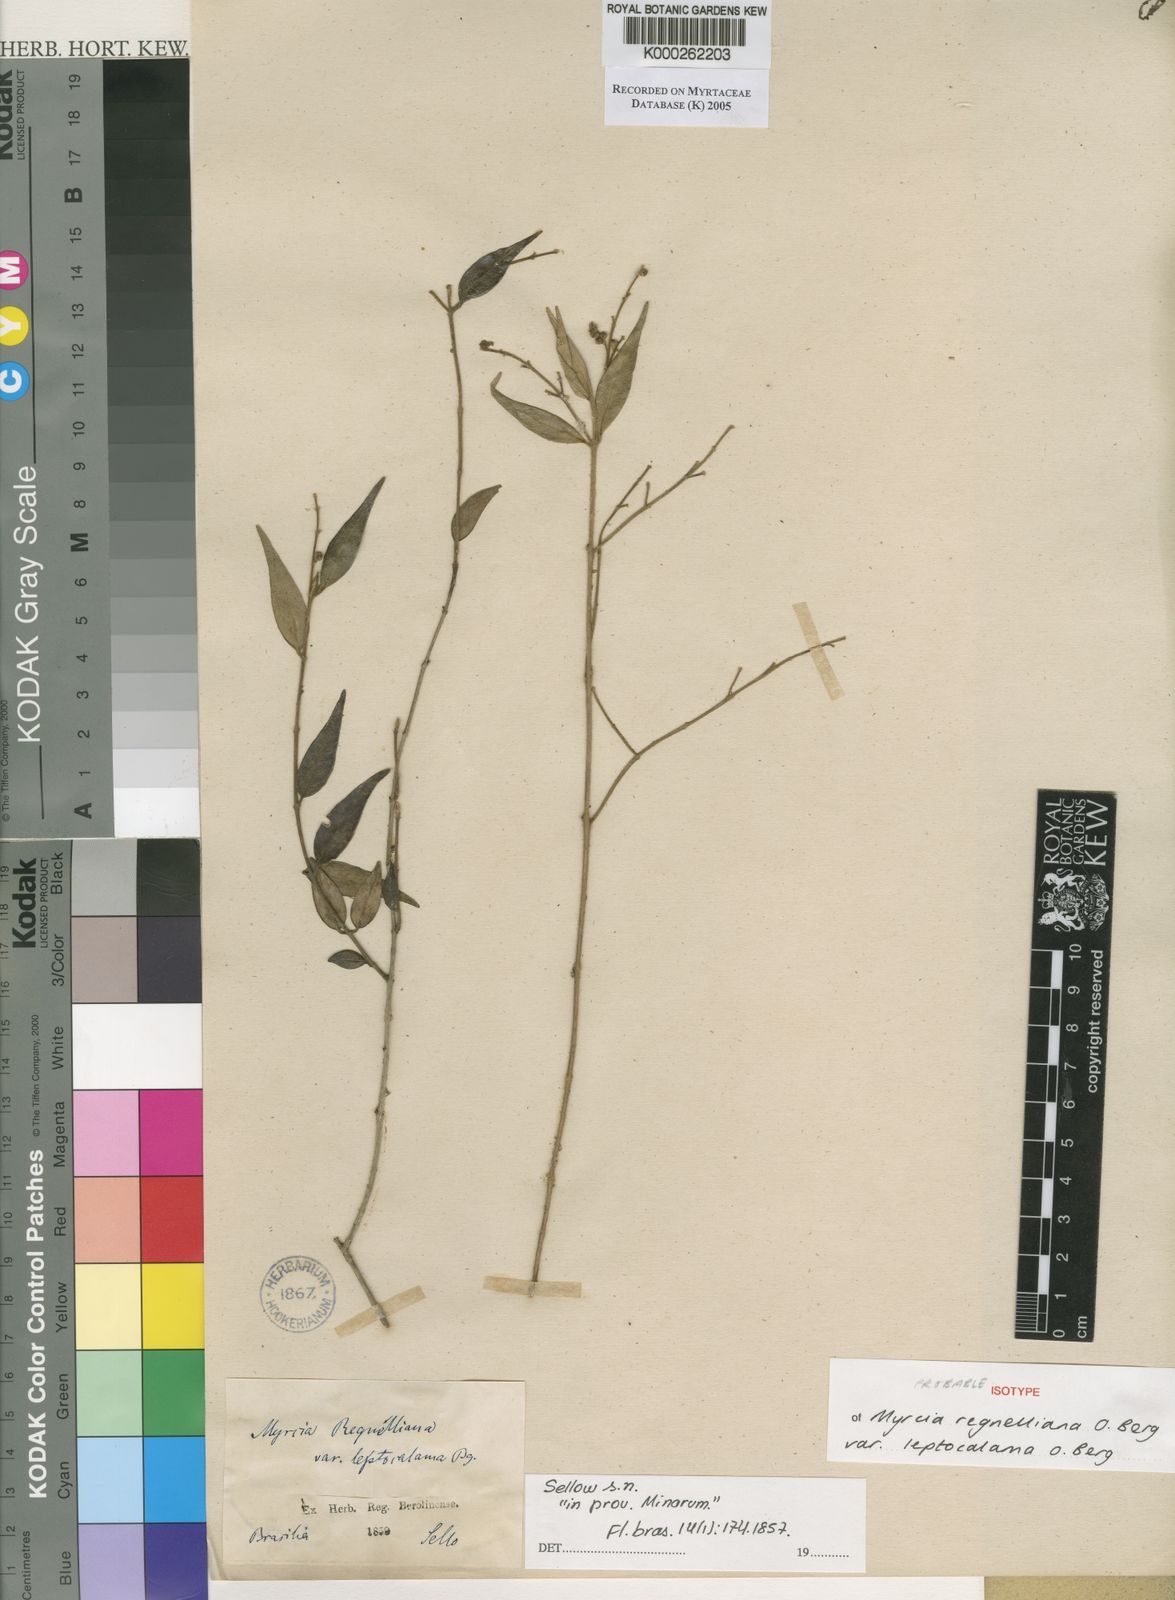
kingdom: Plantae
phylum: Tracheophyta
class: Magnoliopsida
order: Myrtales
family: Myrtaceae
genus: Myrcia
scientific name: Myrcia regnelliana
